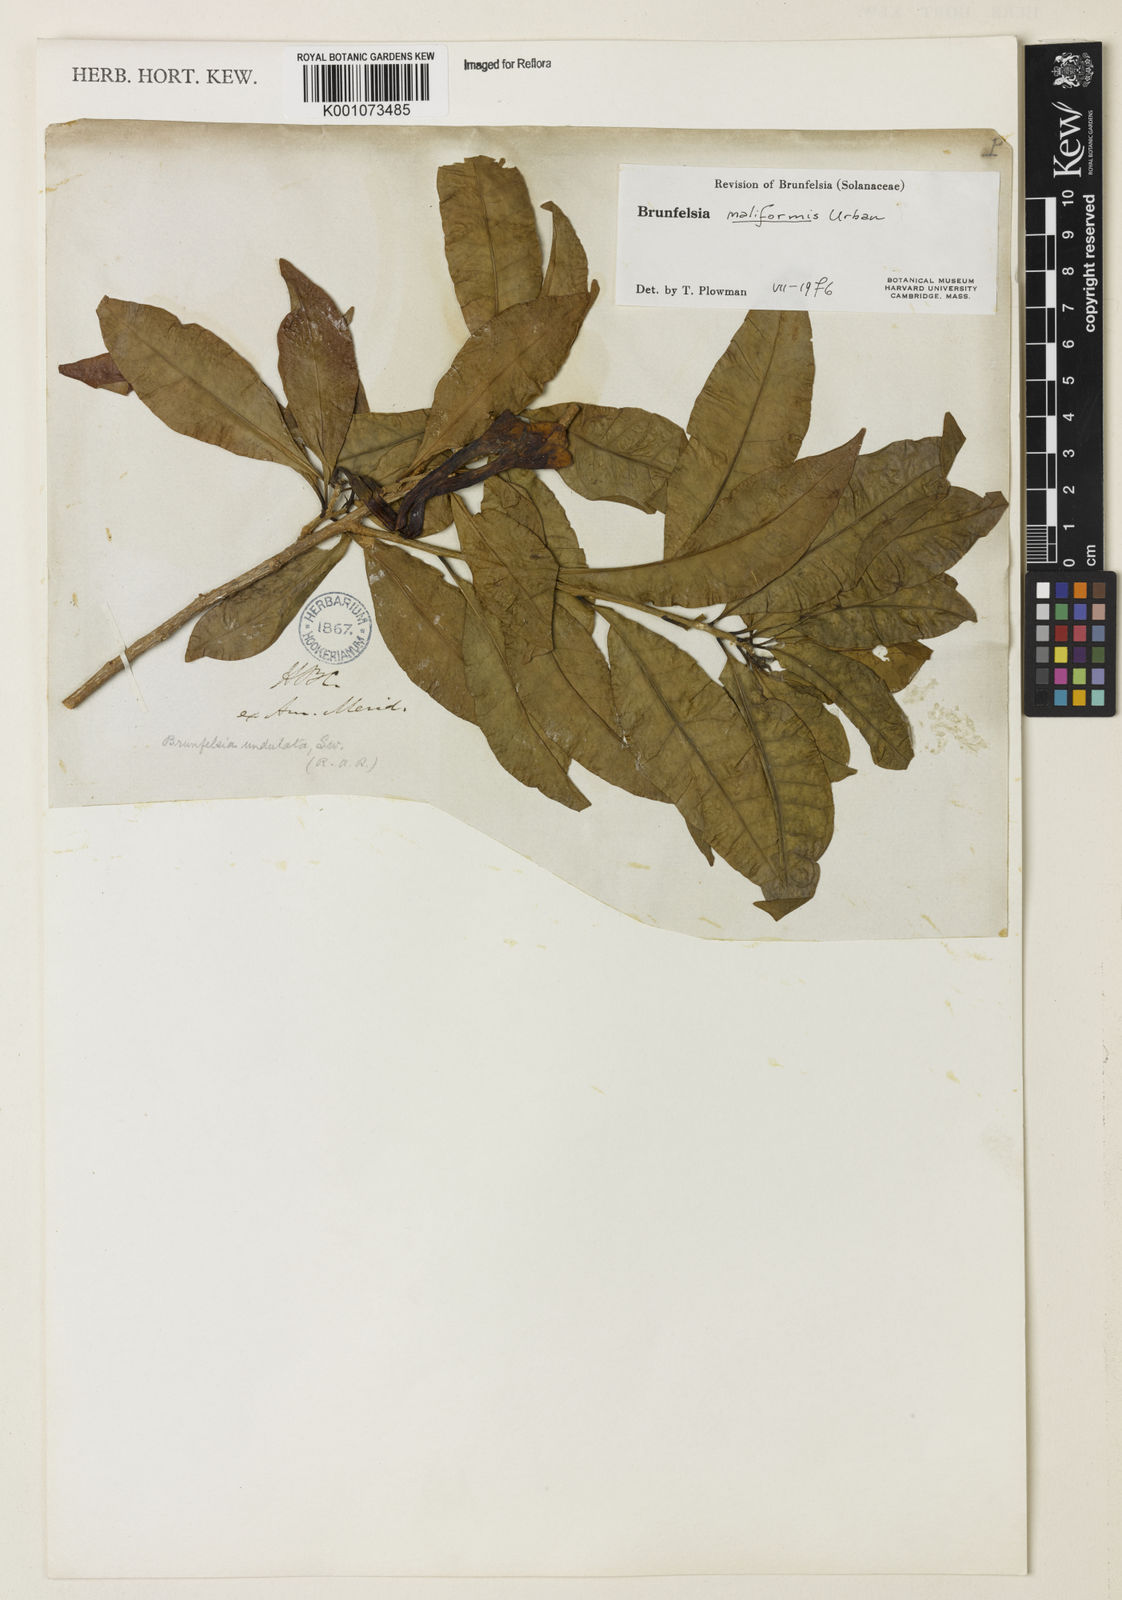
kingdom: Plantae
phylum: Tracheophyta
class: Magnoliopsida
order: Solanales
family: Solanaceae
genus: Brunfelsia
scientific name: Brunfelsia maliformis
